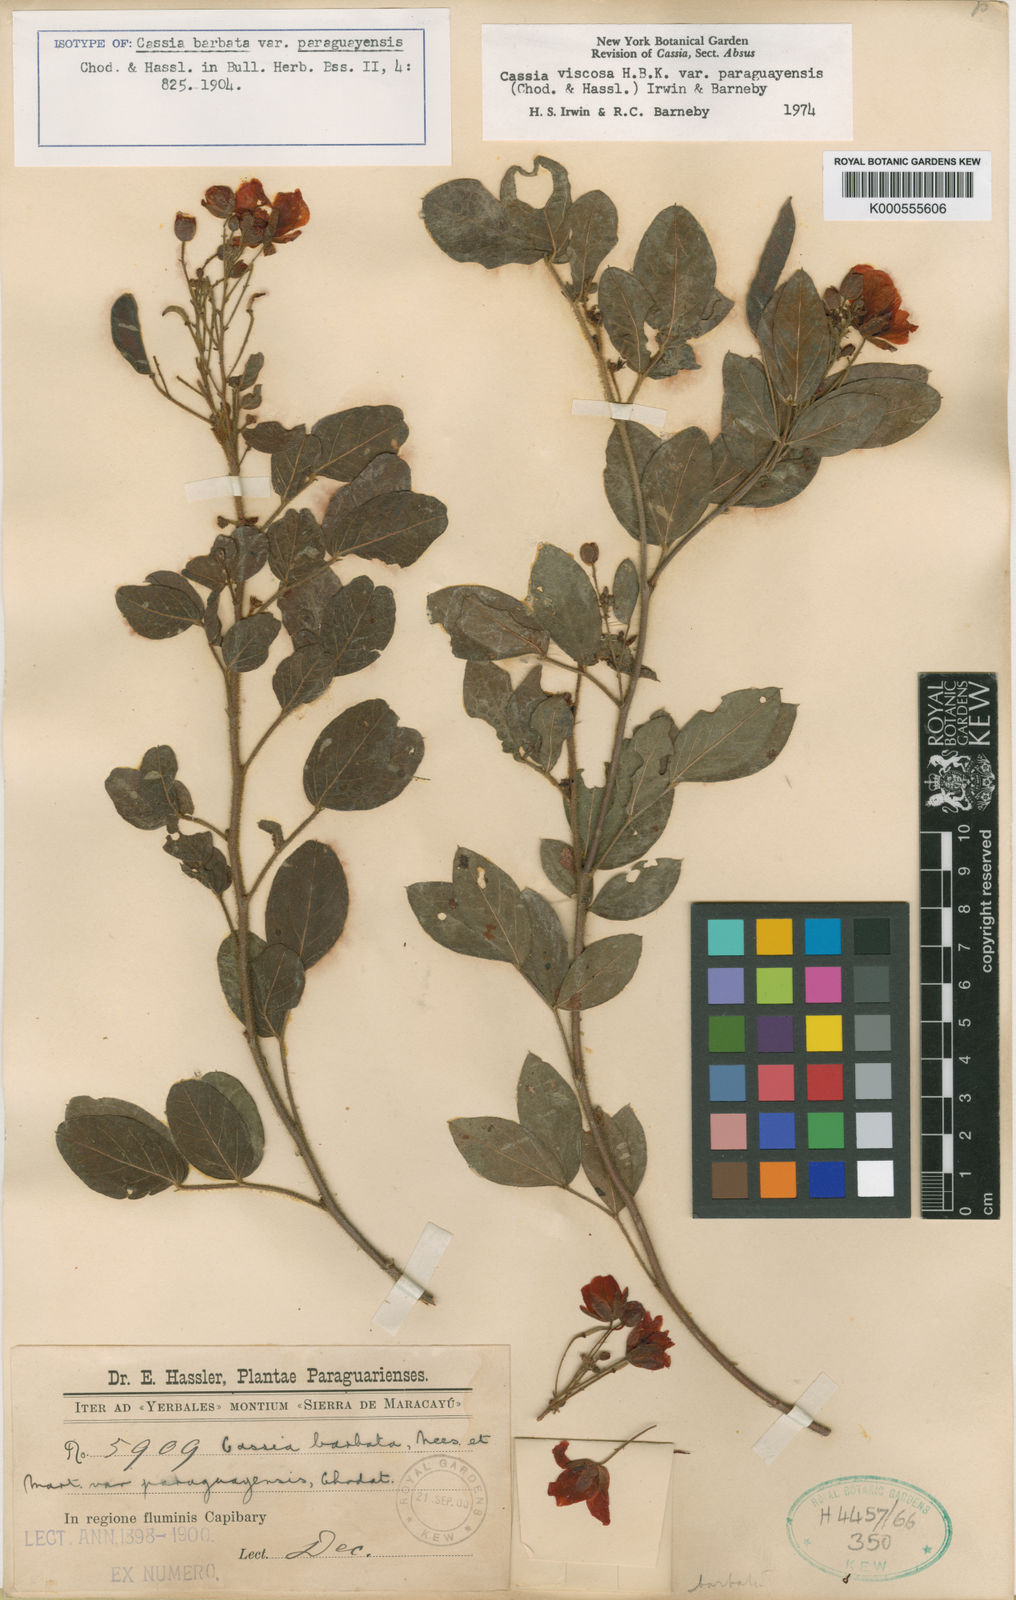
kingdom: Plantae
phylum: Tracheophyta
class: Magnoliopsida
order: Fabales
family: Fabaceae
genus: Chamaecrista
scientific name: Chamaecrista viscosa
